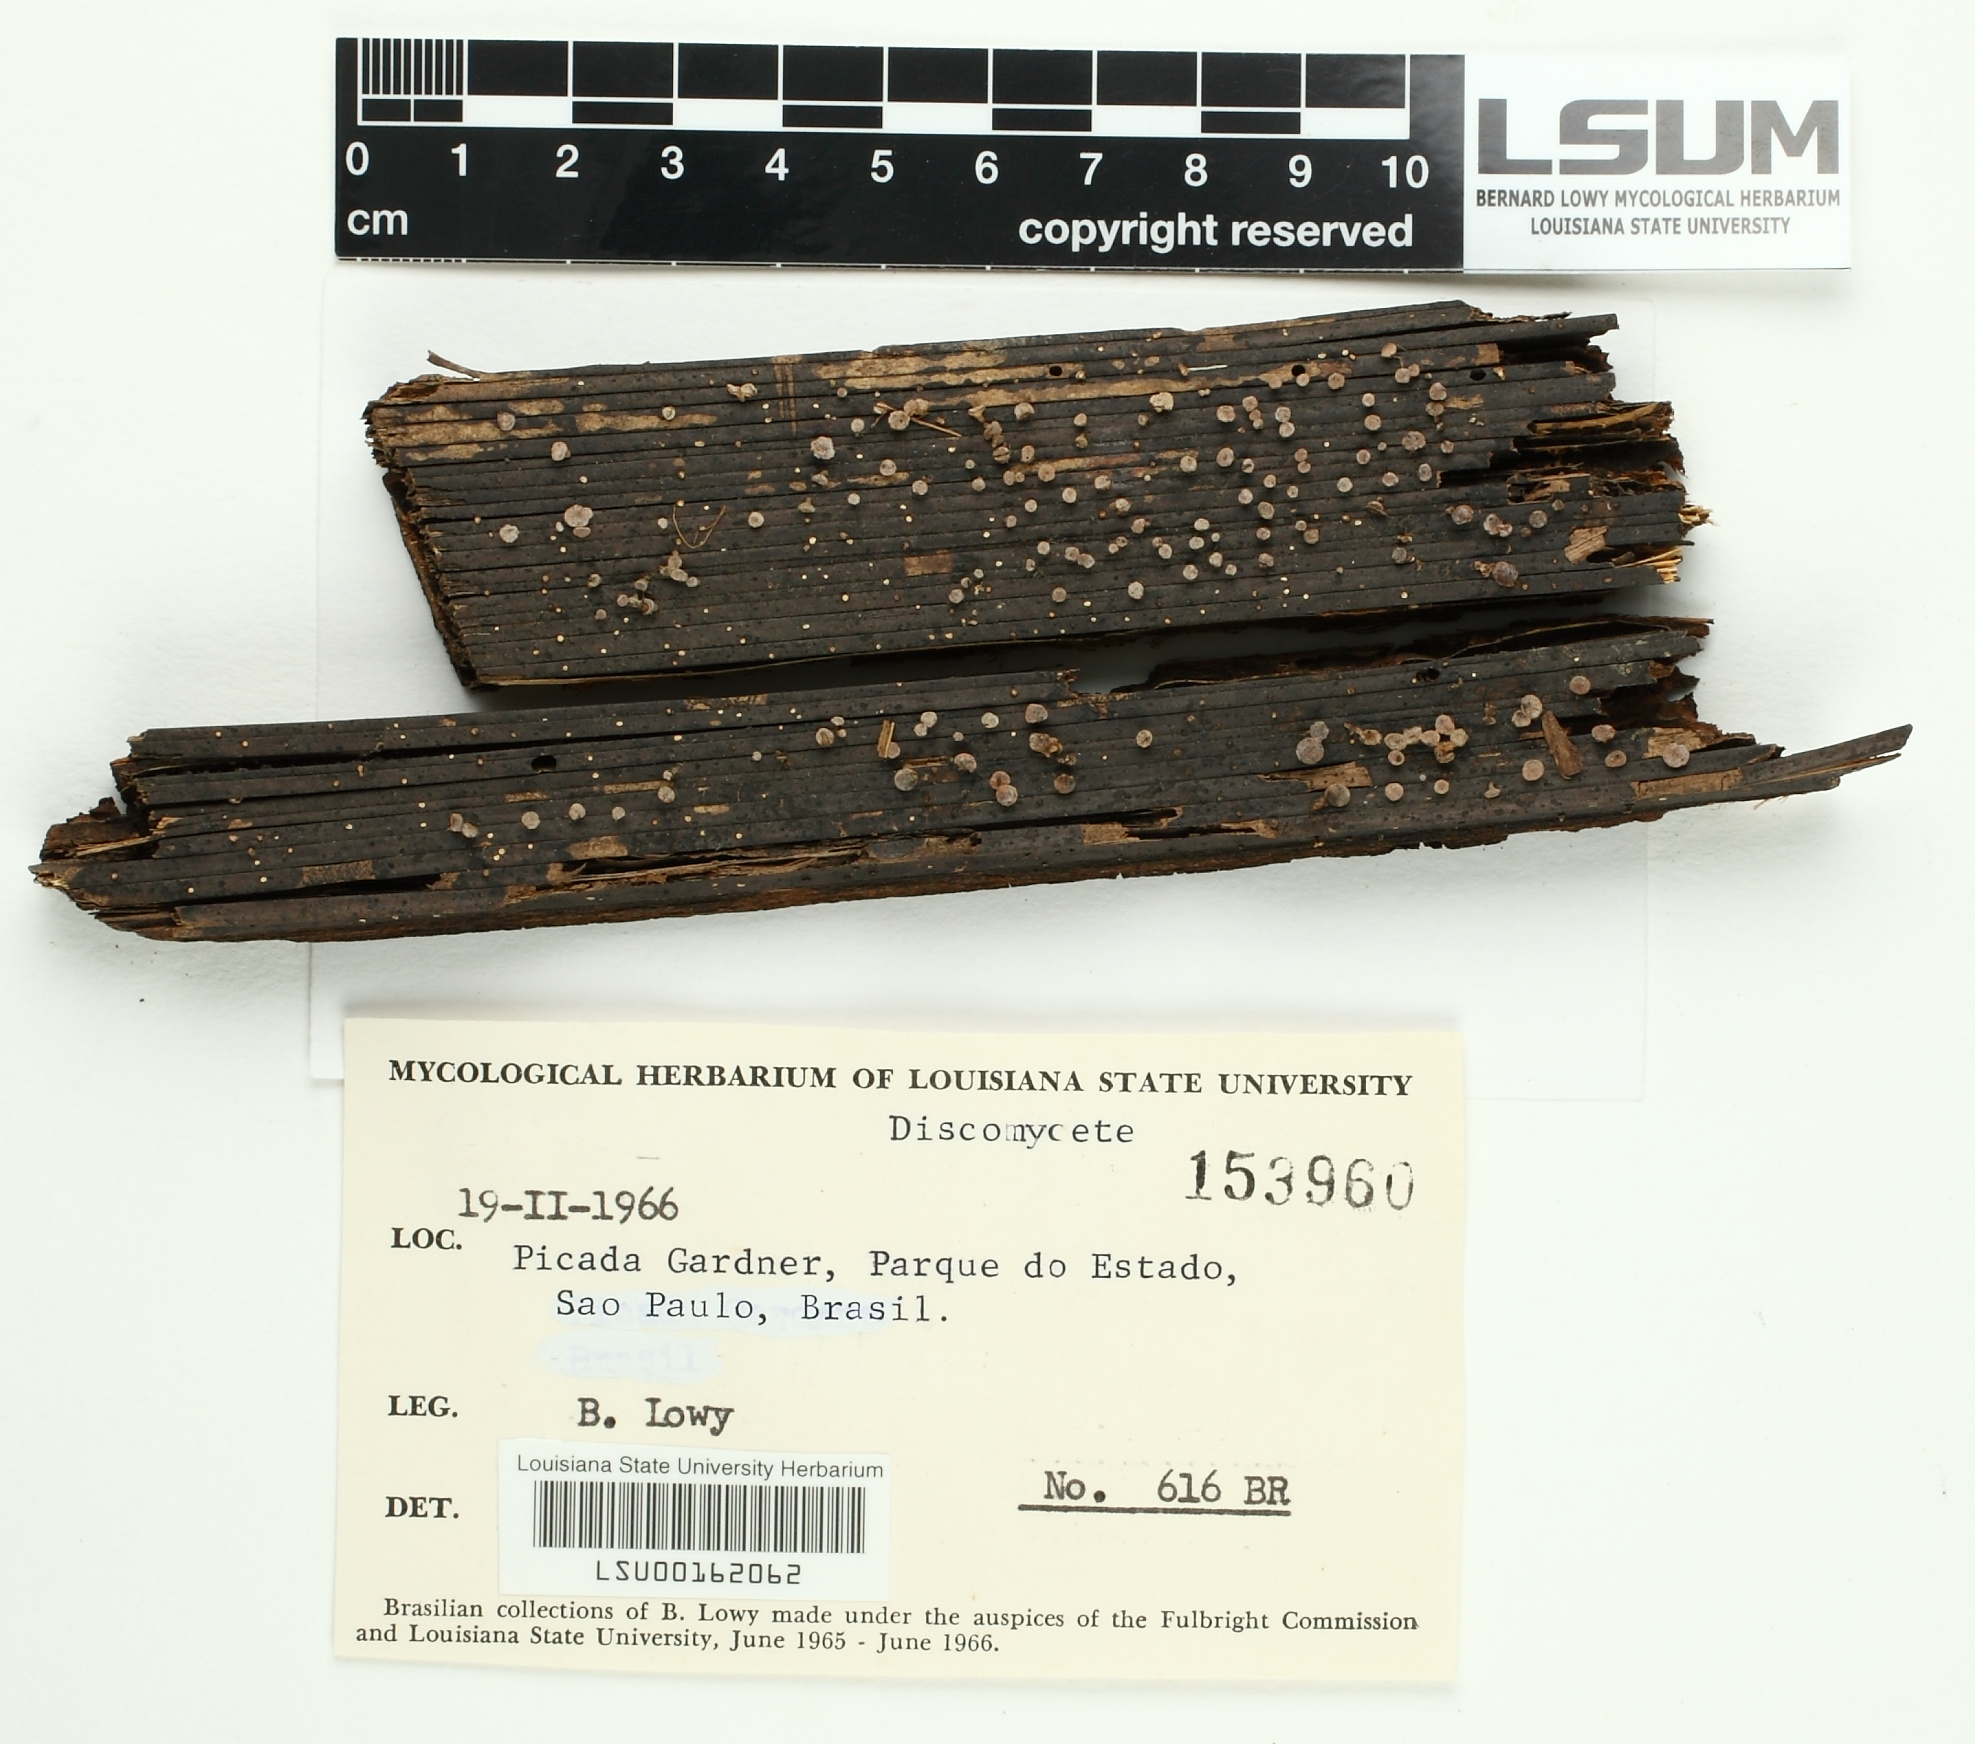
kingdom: Fungi
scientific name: Fungi
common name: Fungi
